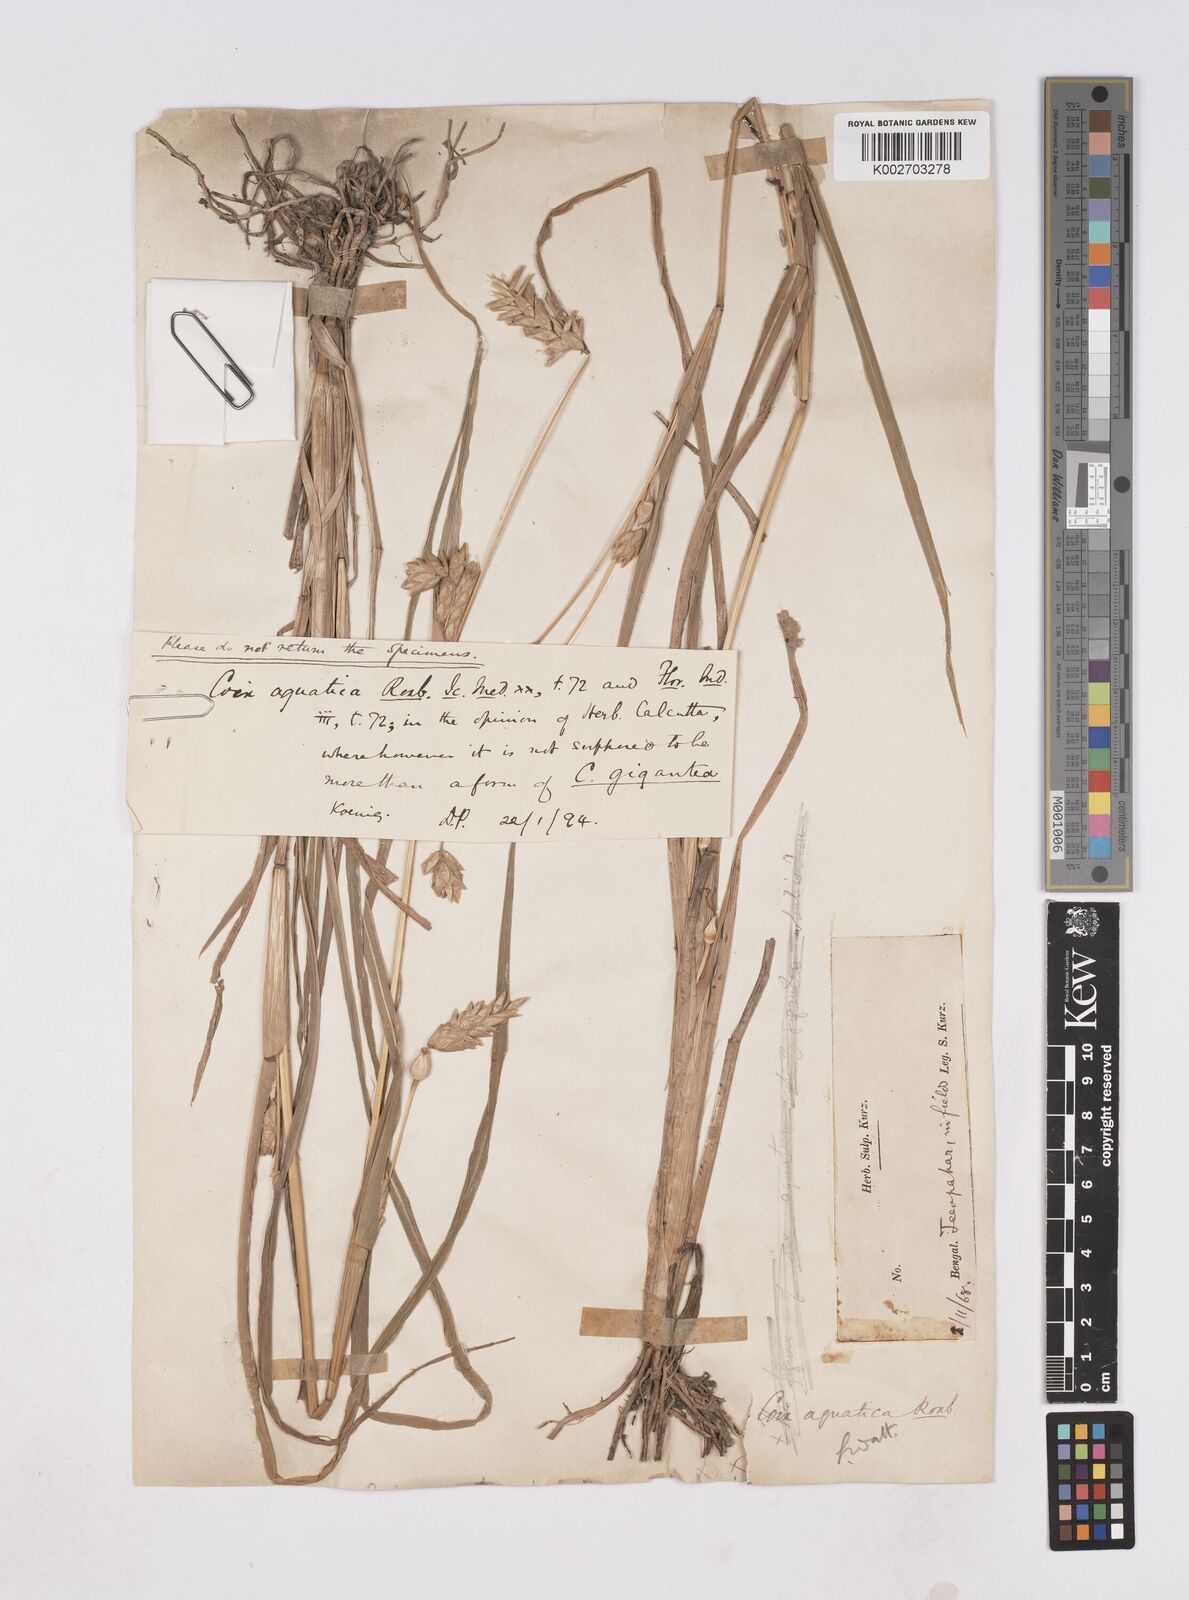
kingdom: Plantae
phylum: Tracheophyta
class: Liliopsida
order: Poales
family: Poaceae
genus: Coix
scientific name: Coix aquatica
